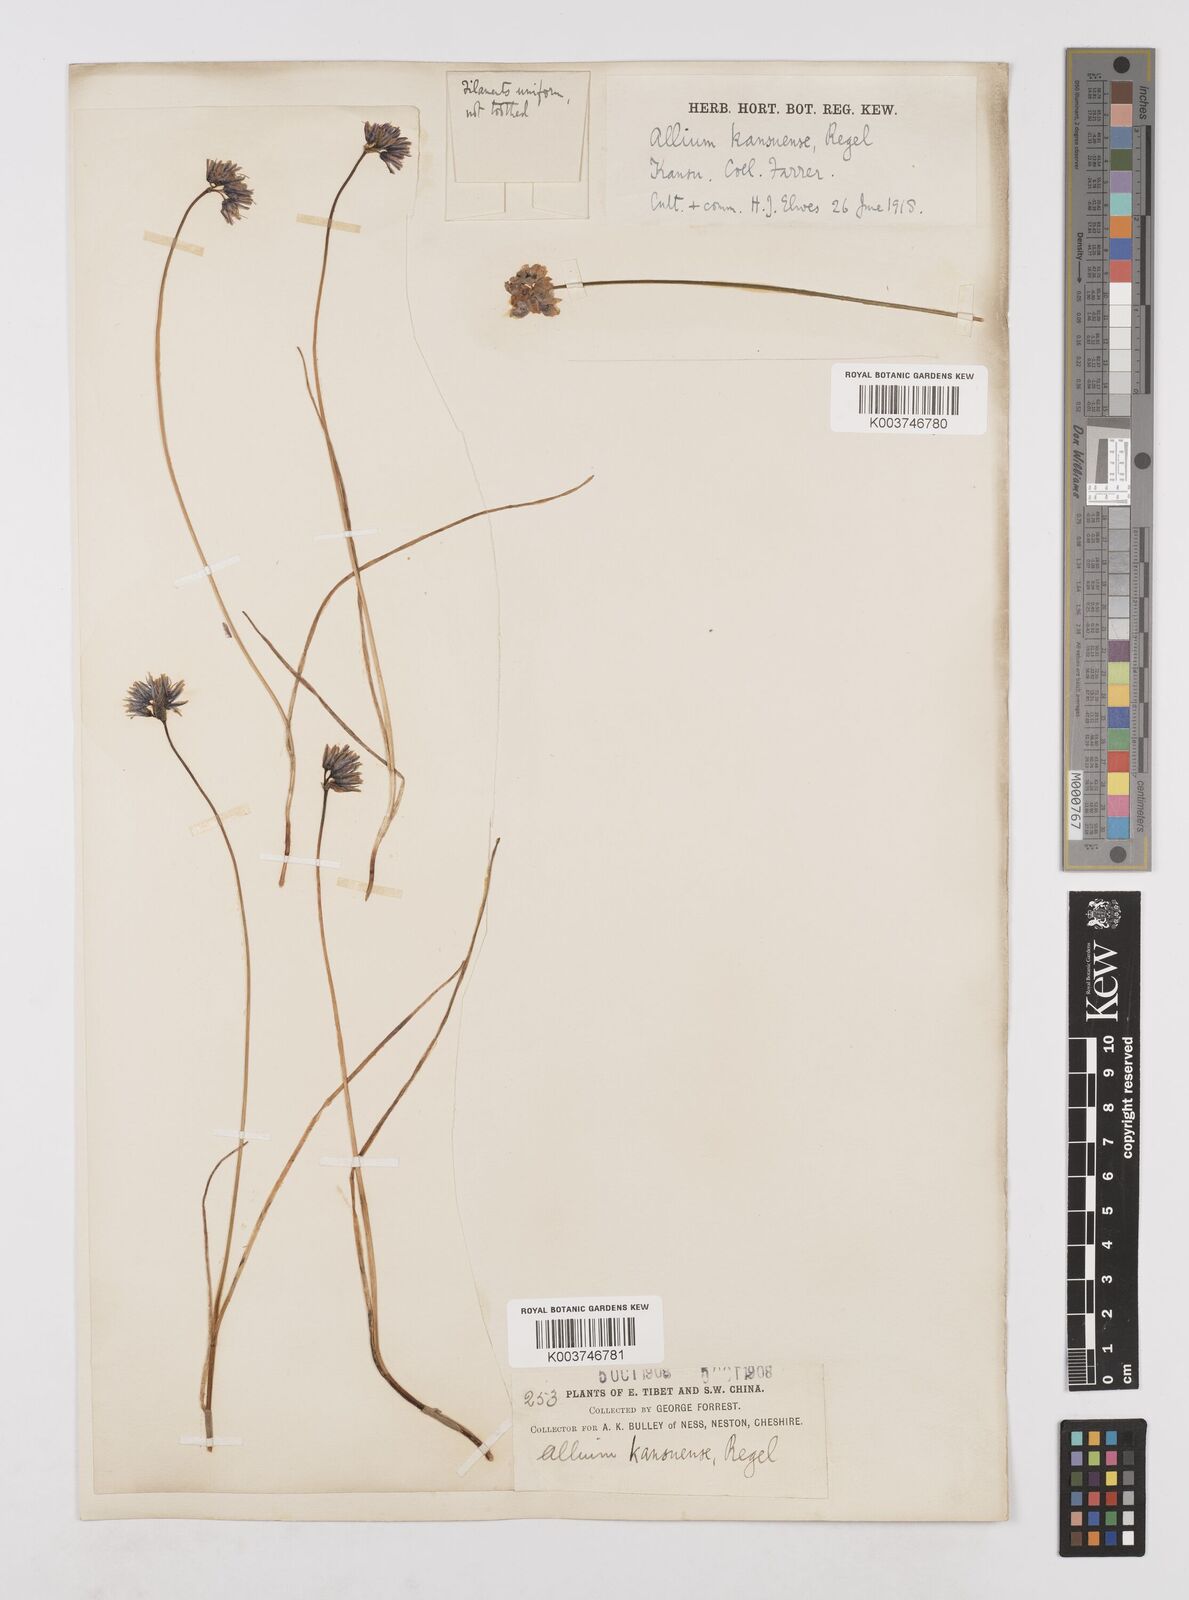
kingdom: Plantae
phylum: Tracheophyta
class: Liliopsida
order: Asparagales
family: Amaryllidaceae
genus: Allium
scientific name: Allium sikkimense
